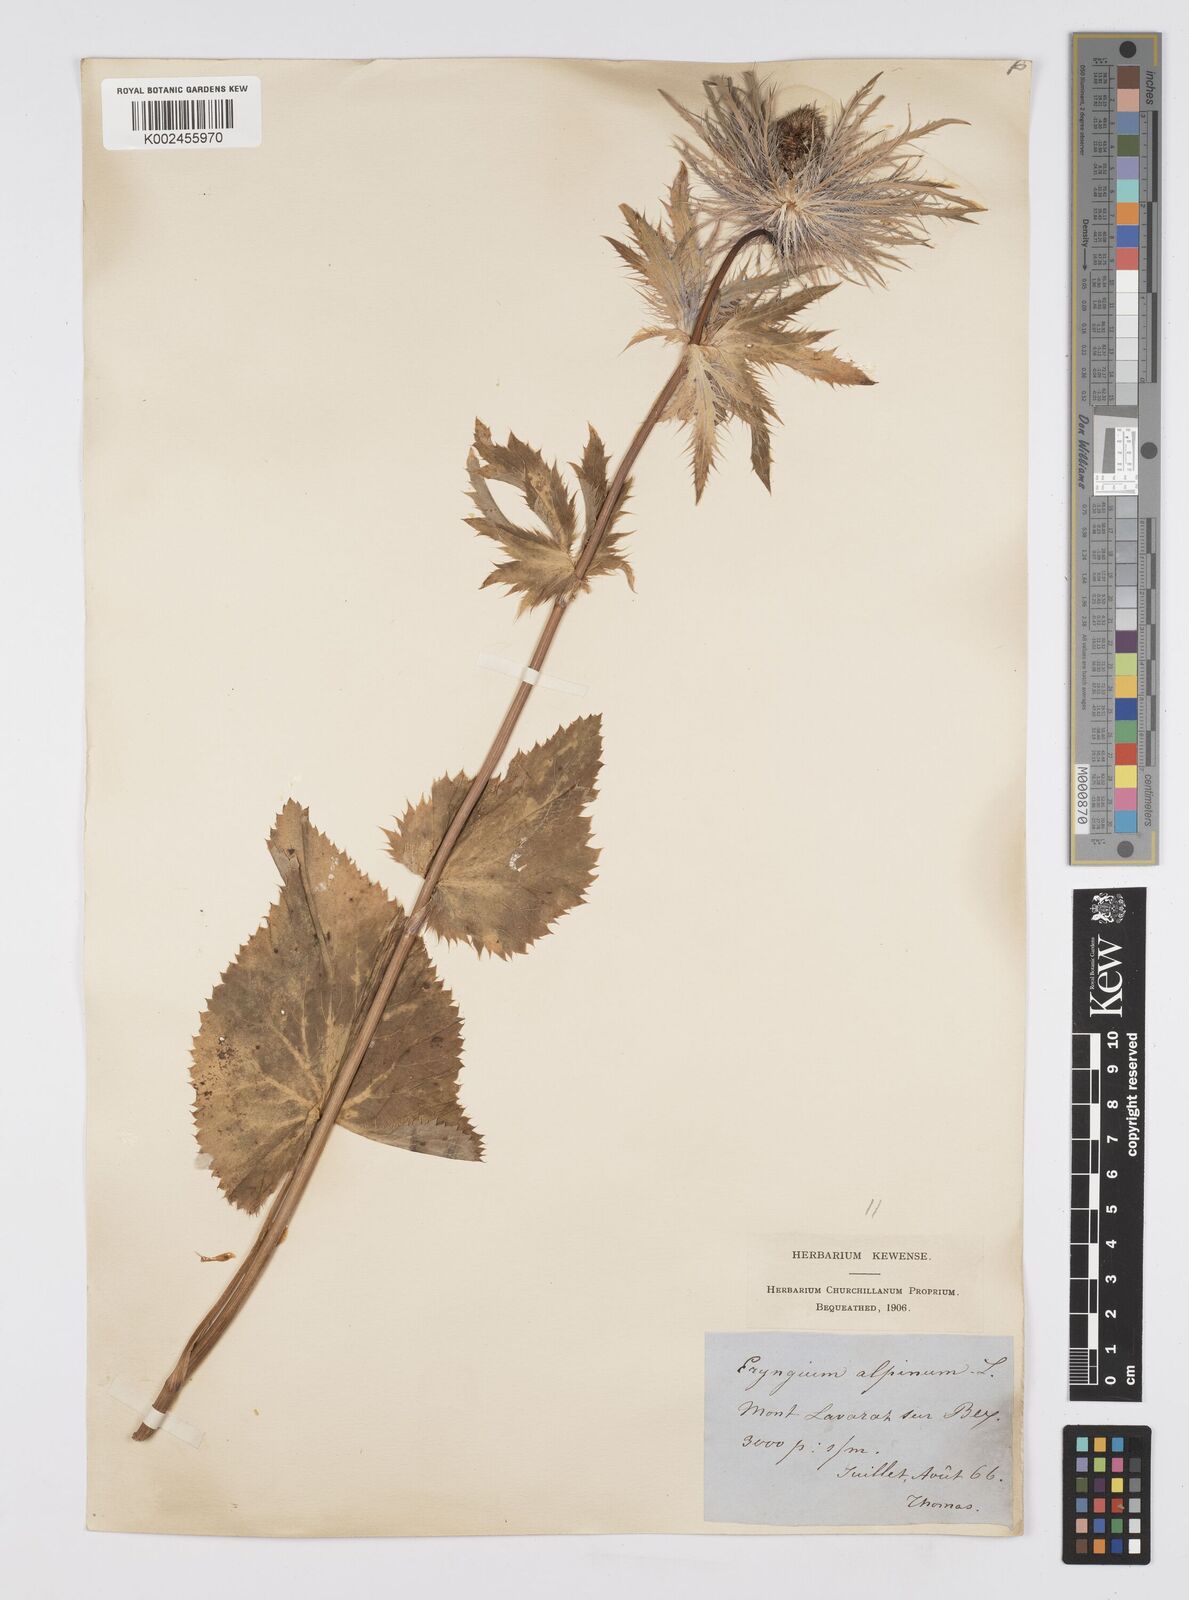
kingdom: Plantae
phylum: Tracheophyta
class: Magnoliopsida
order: Apiales
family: Apiaceae
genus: Eryngium
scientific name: Eryngium alpinum
